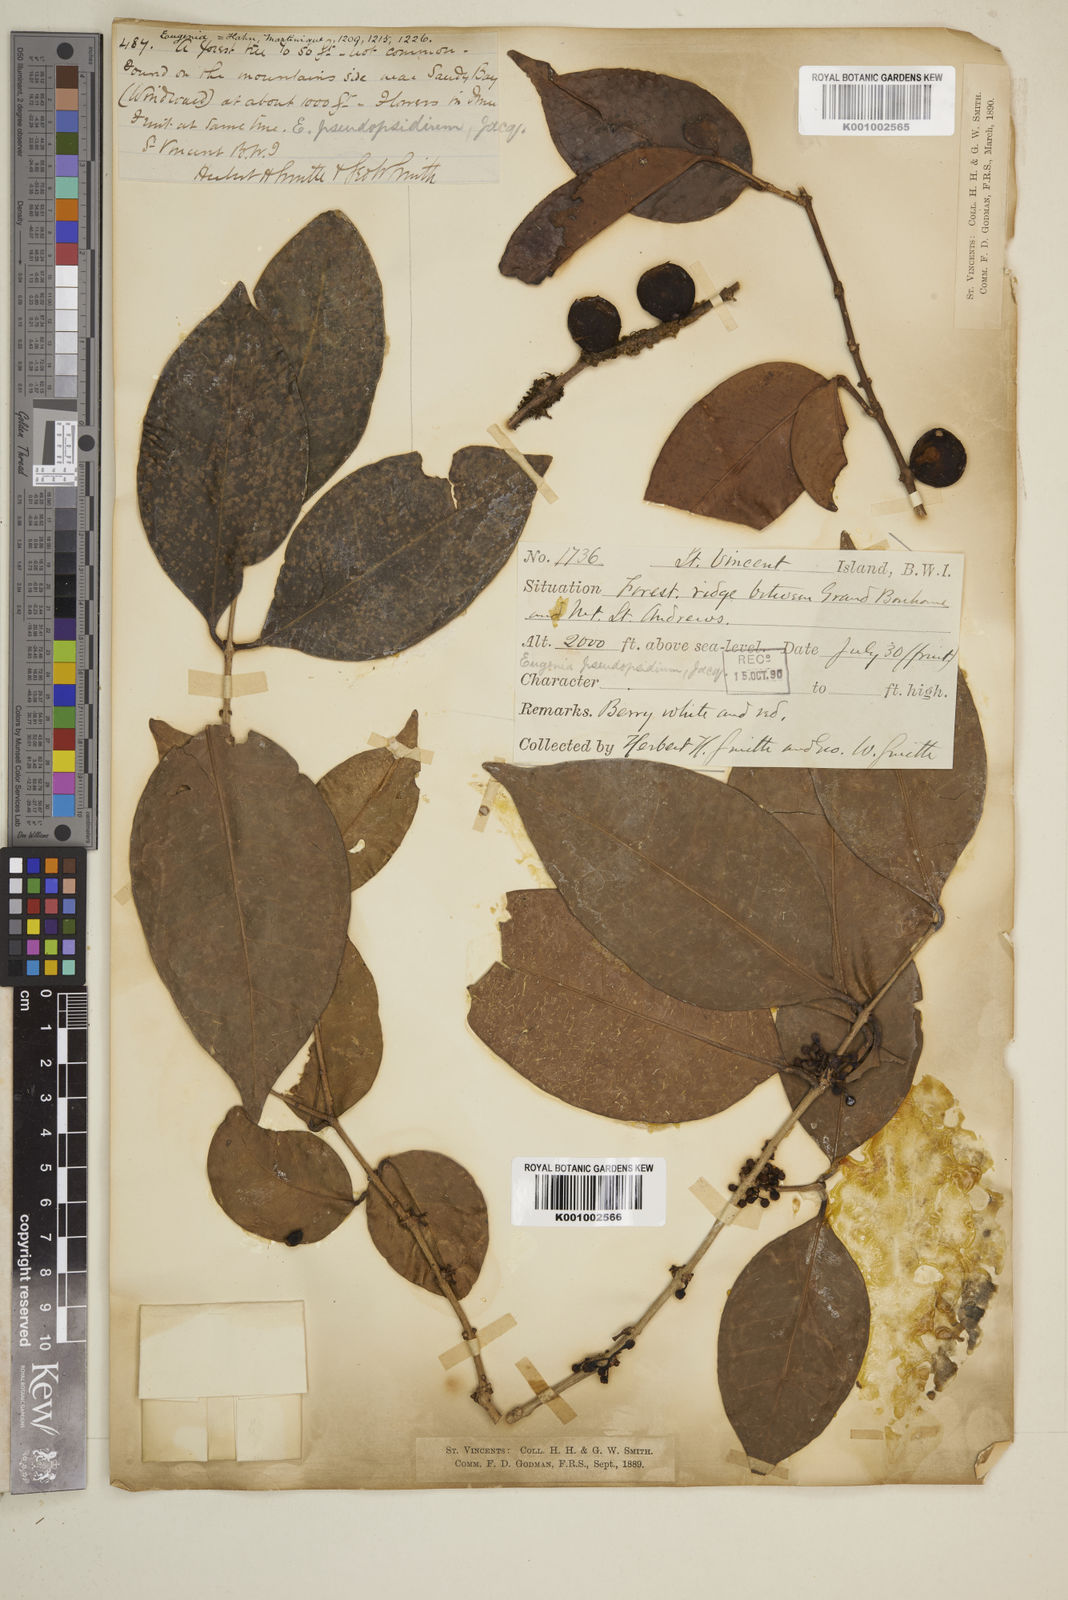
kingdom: Plantae
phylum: Tracheophyta
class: Magnoliopsida
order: Myrtales
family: Myrtaceae
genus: Eugenia
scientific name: Eugenia lambertiana
